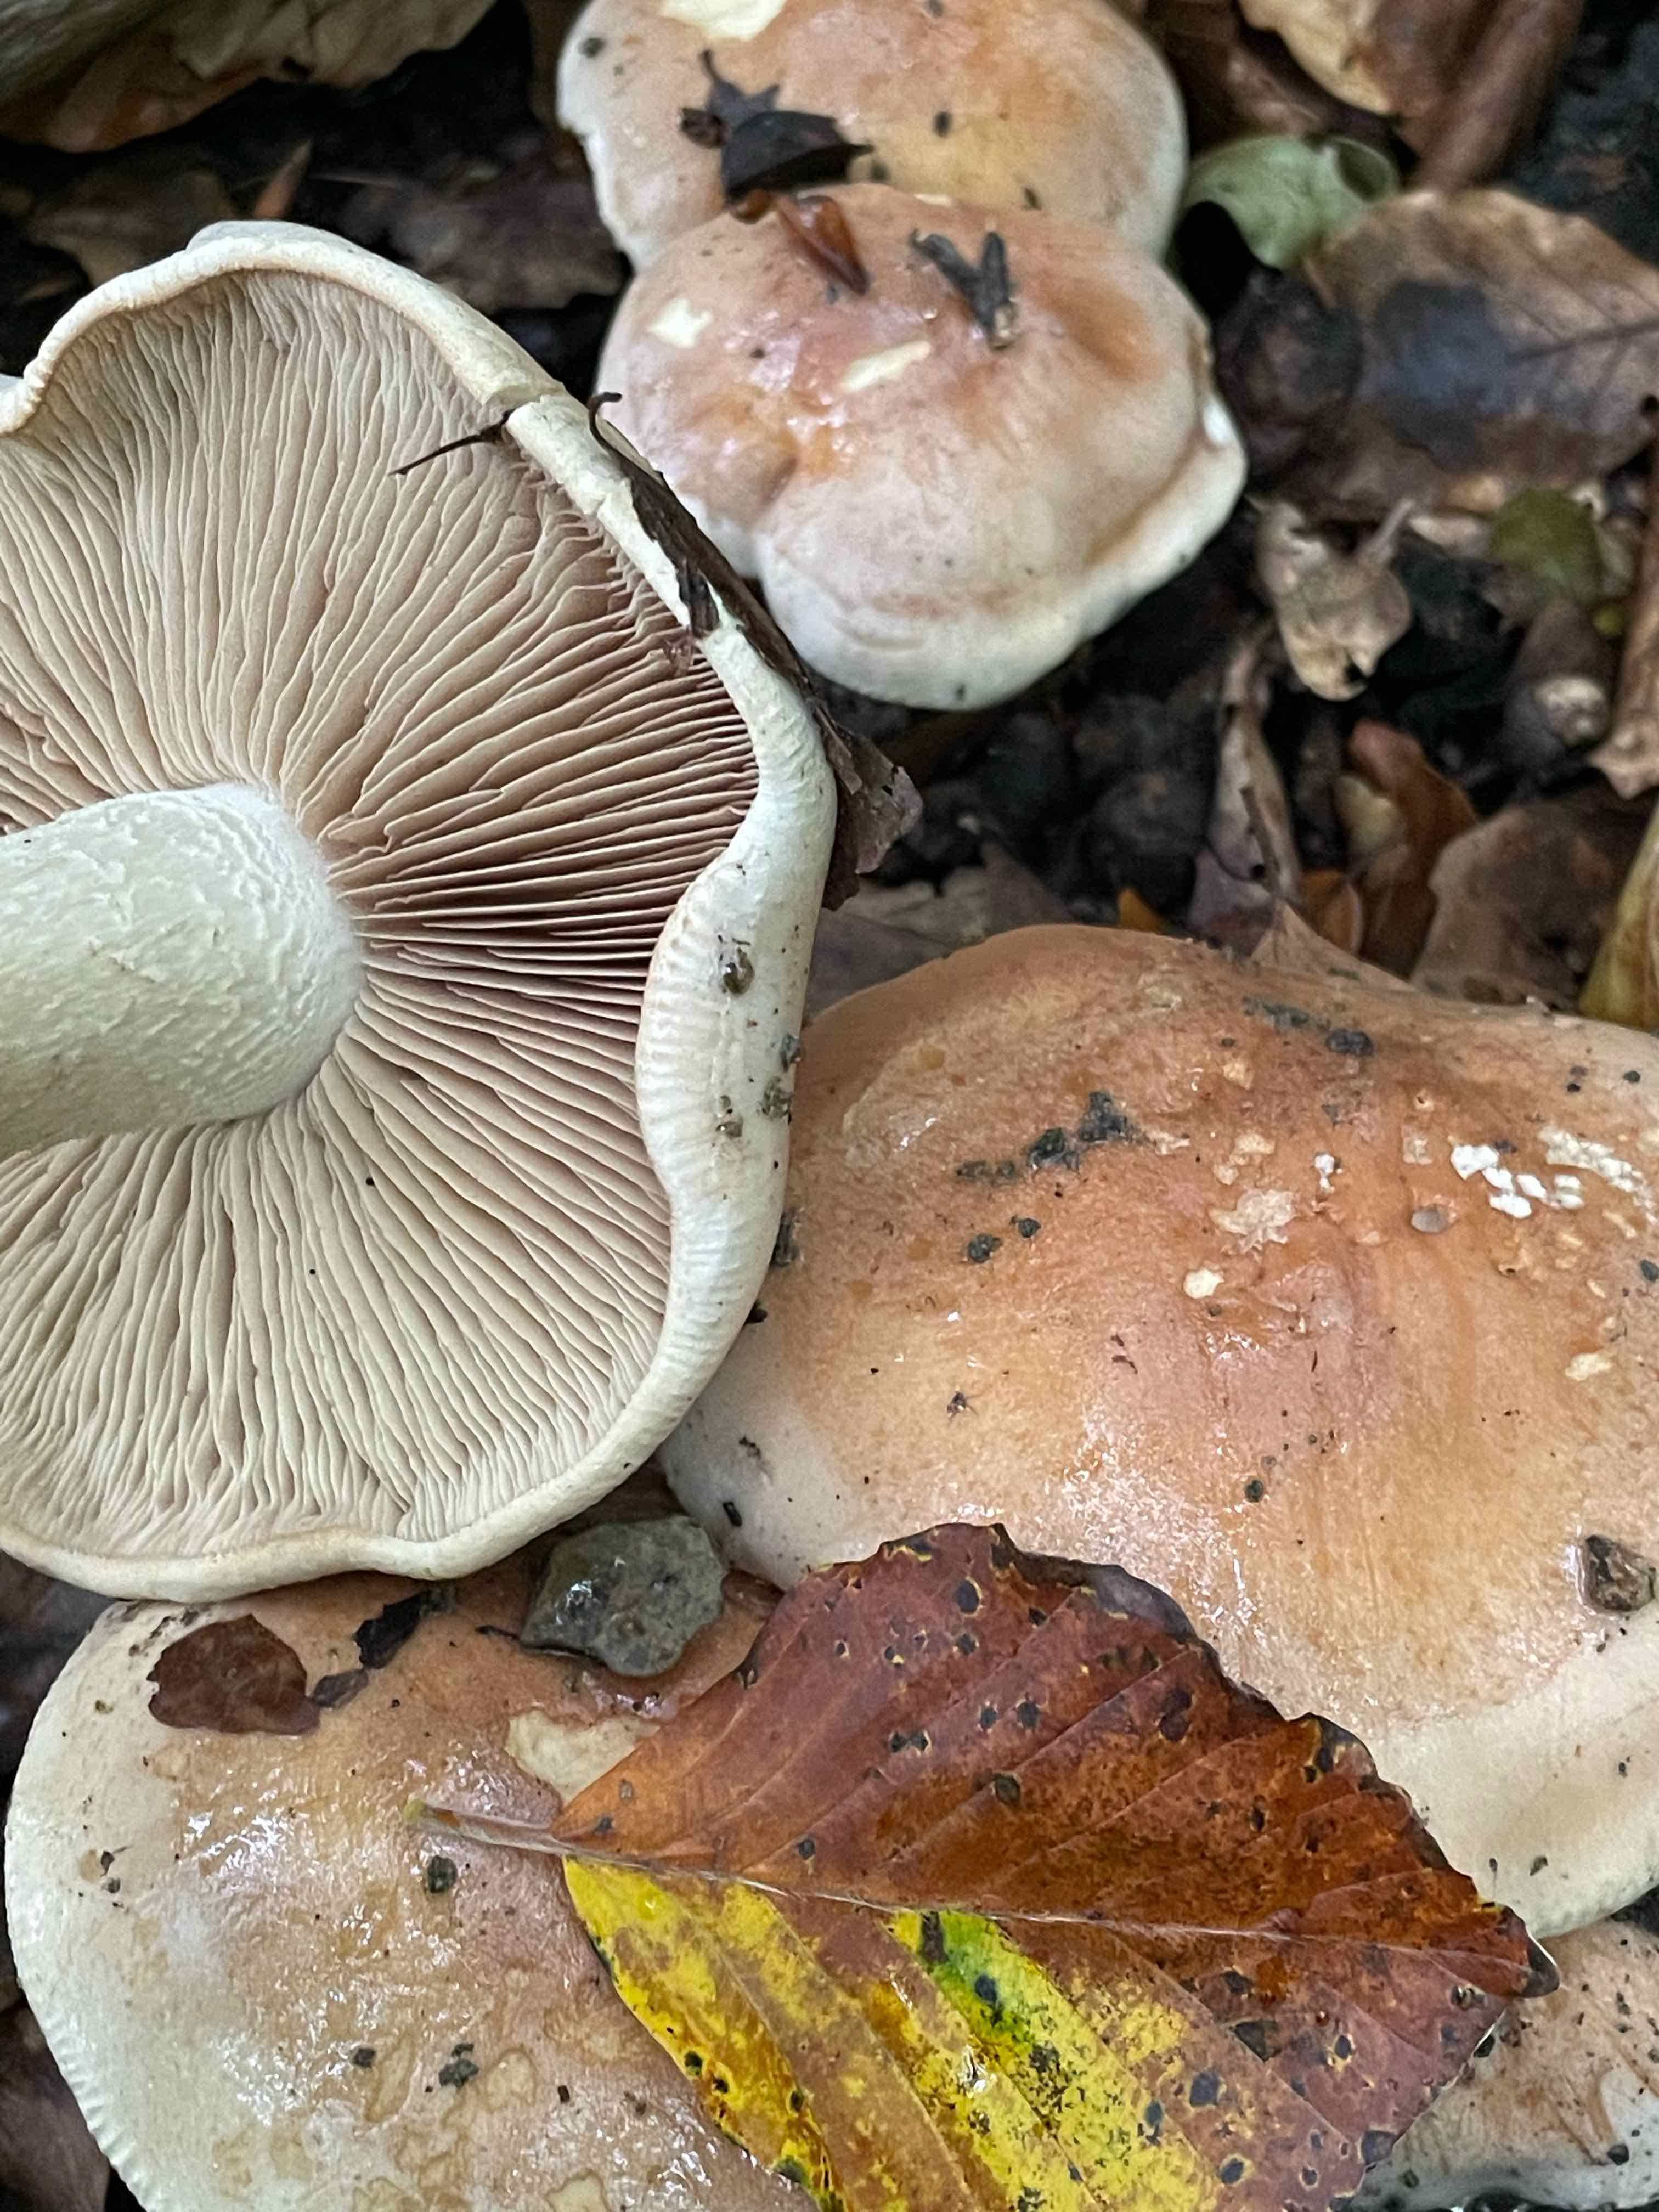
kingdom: Fungi
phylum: Basidiomycota
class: Agaricomycetes
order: Agaricales
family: Hymenogastraceae
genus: Hebeloma
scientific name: Hebeloma sinapizans
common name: ræddike-tåreblad
